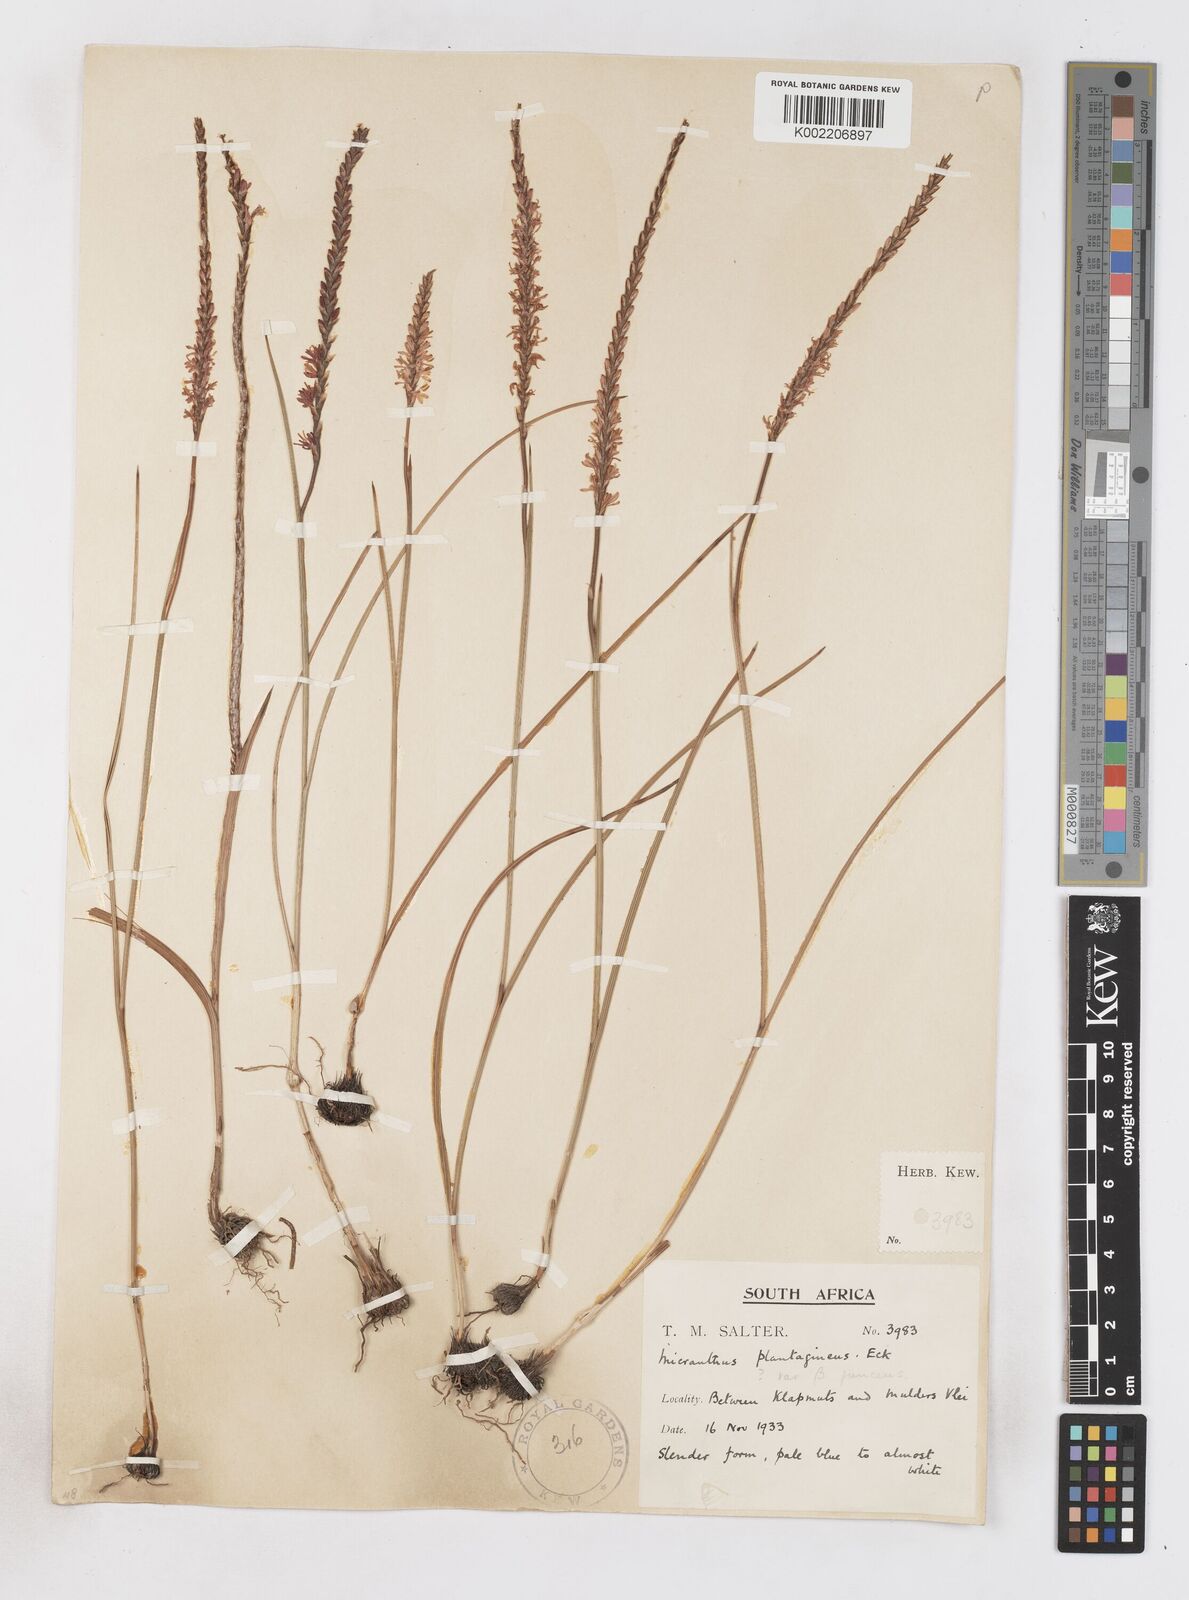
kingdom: Plantae
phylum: Tracheophyta
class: Liliopsida
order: Asparagales
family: Iridaceae
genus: Micranthus
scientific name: Micranthus plantagineus
